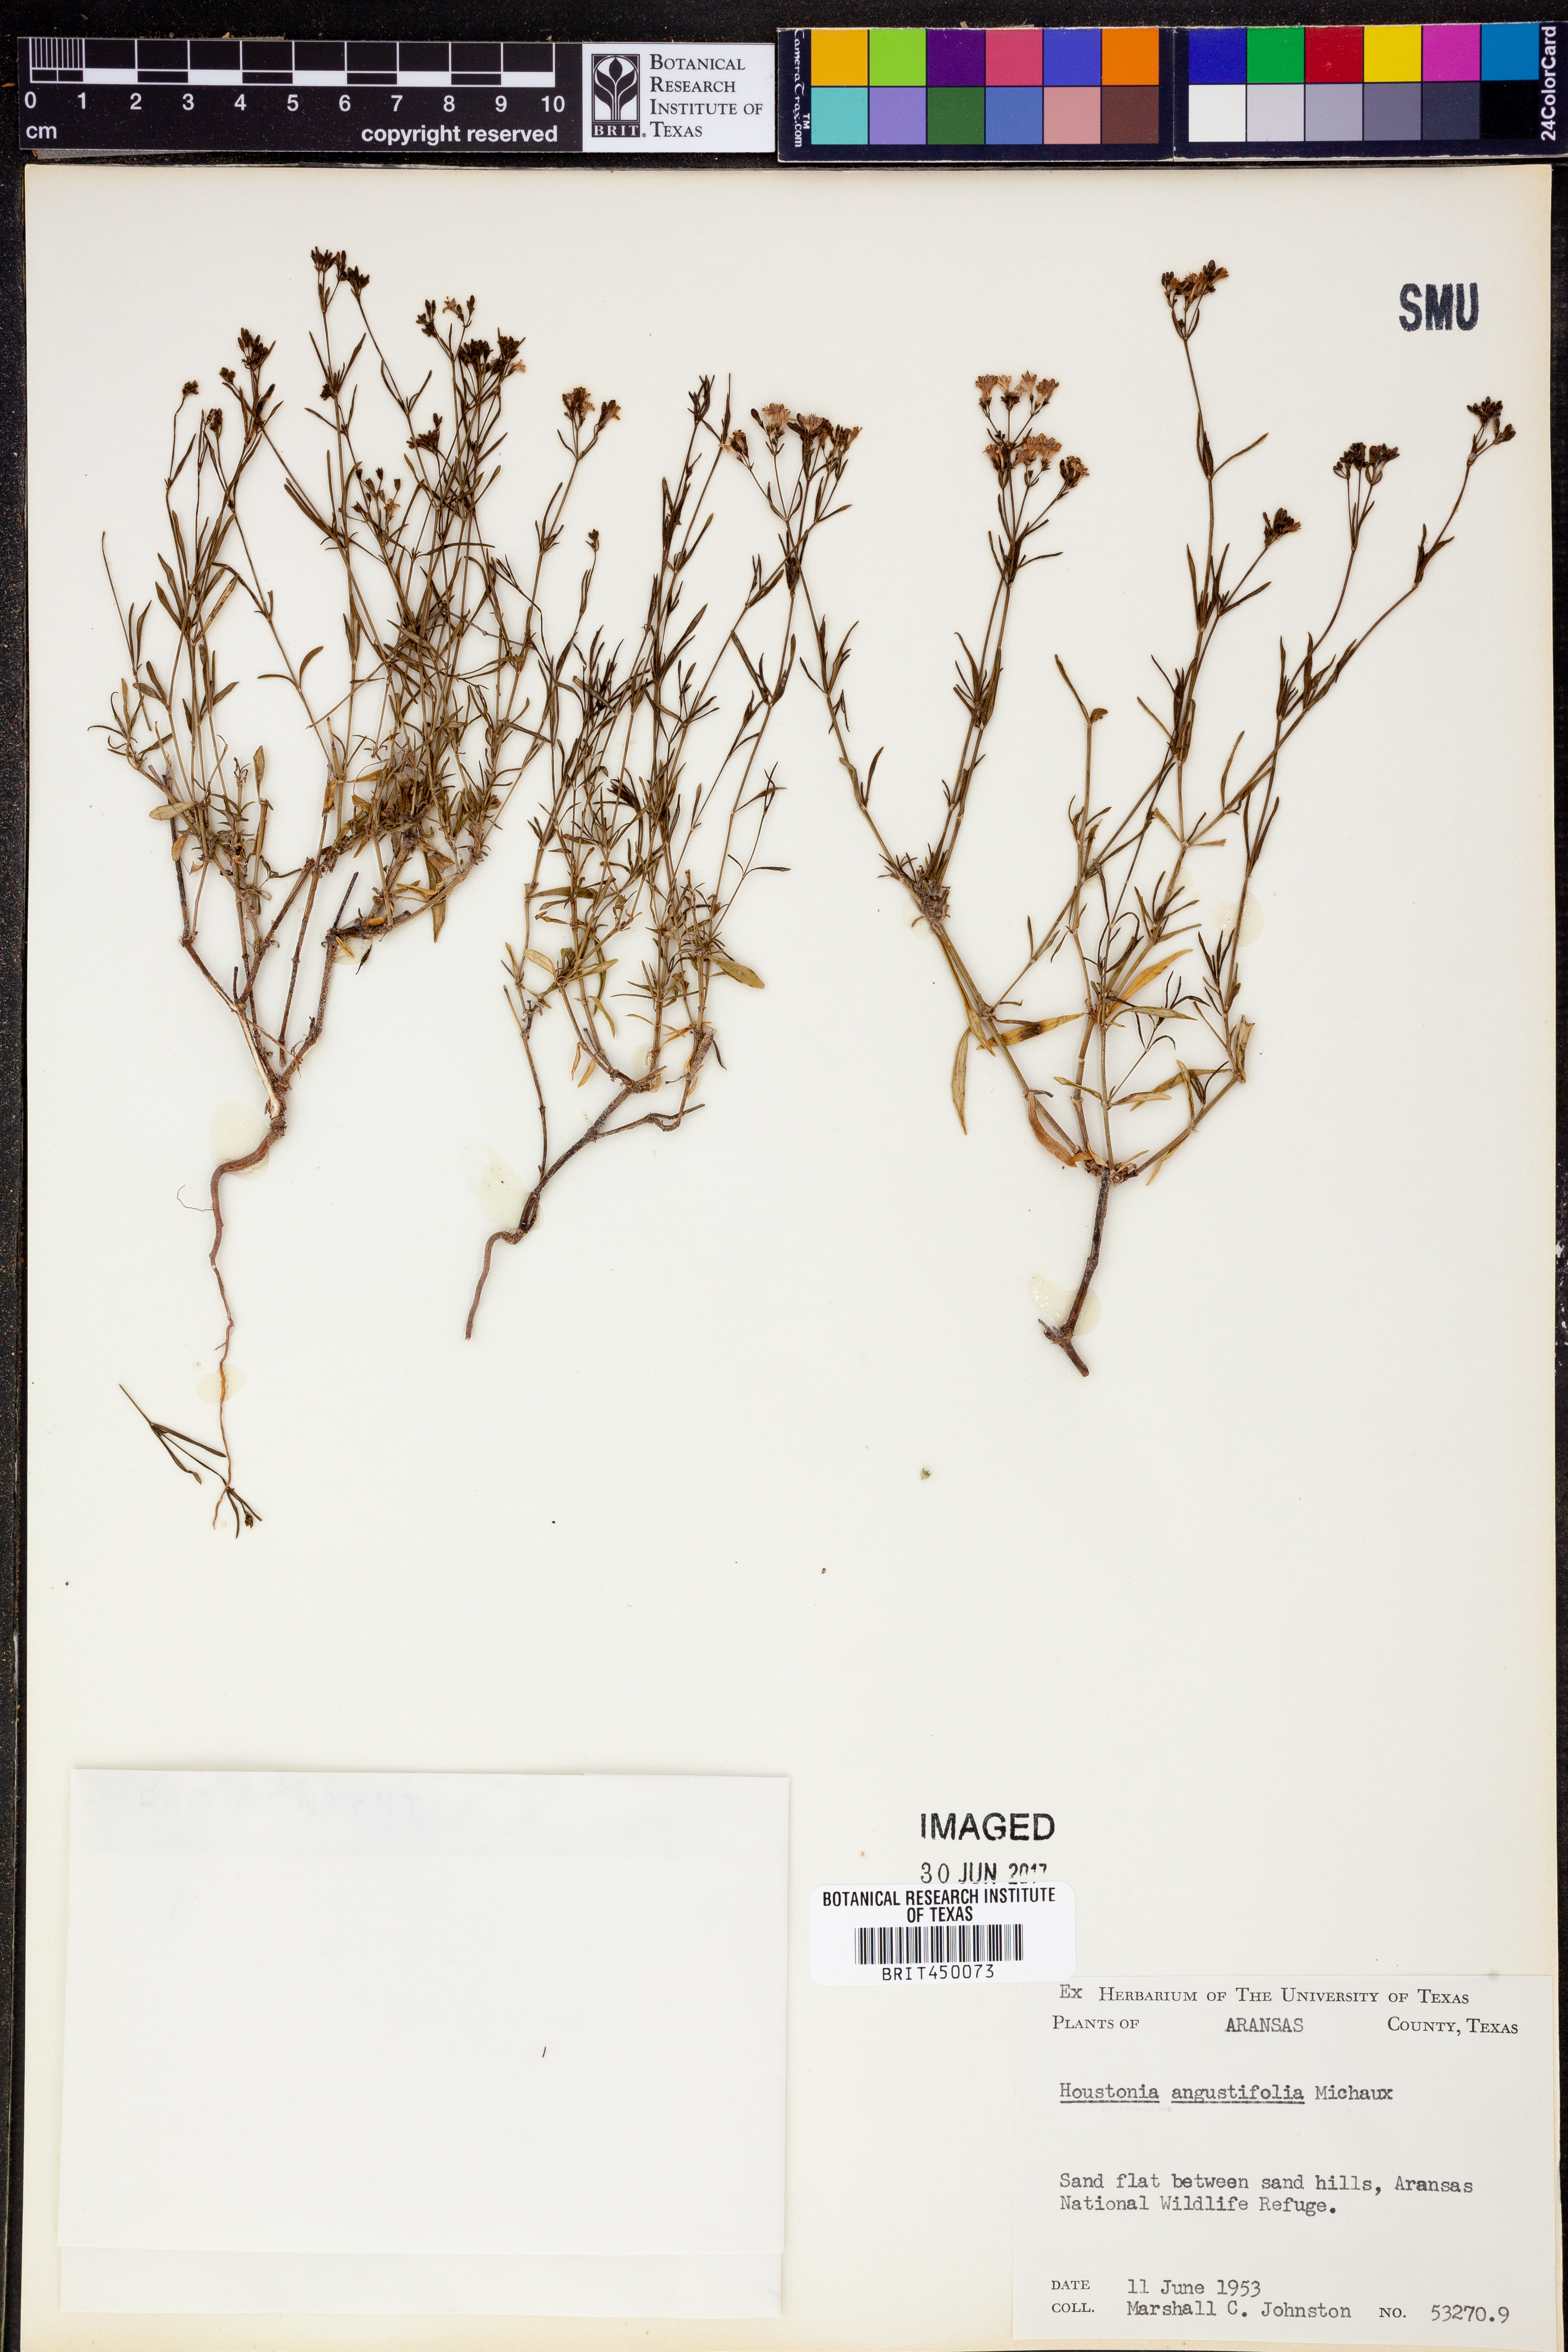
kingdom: Plantae
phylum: Tracheophyta
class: Magnoliopsida
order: Gentianales
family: Rubiaceae
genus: Stenaria
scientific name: Stenaria nigricans
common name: Diamondflowers
